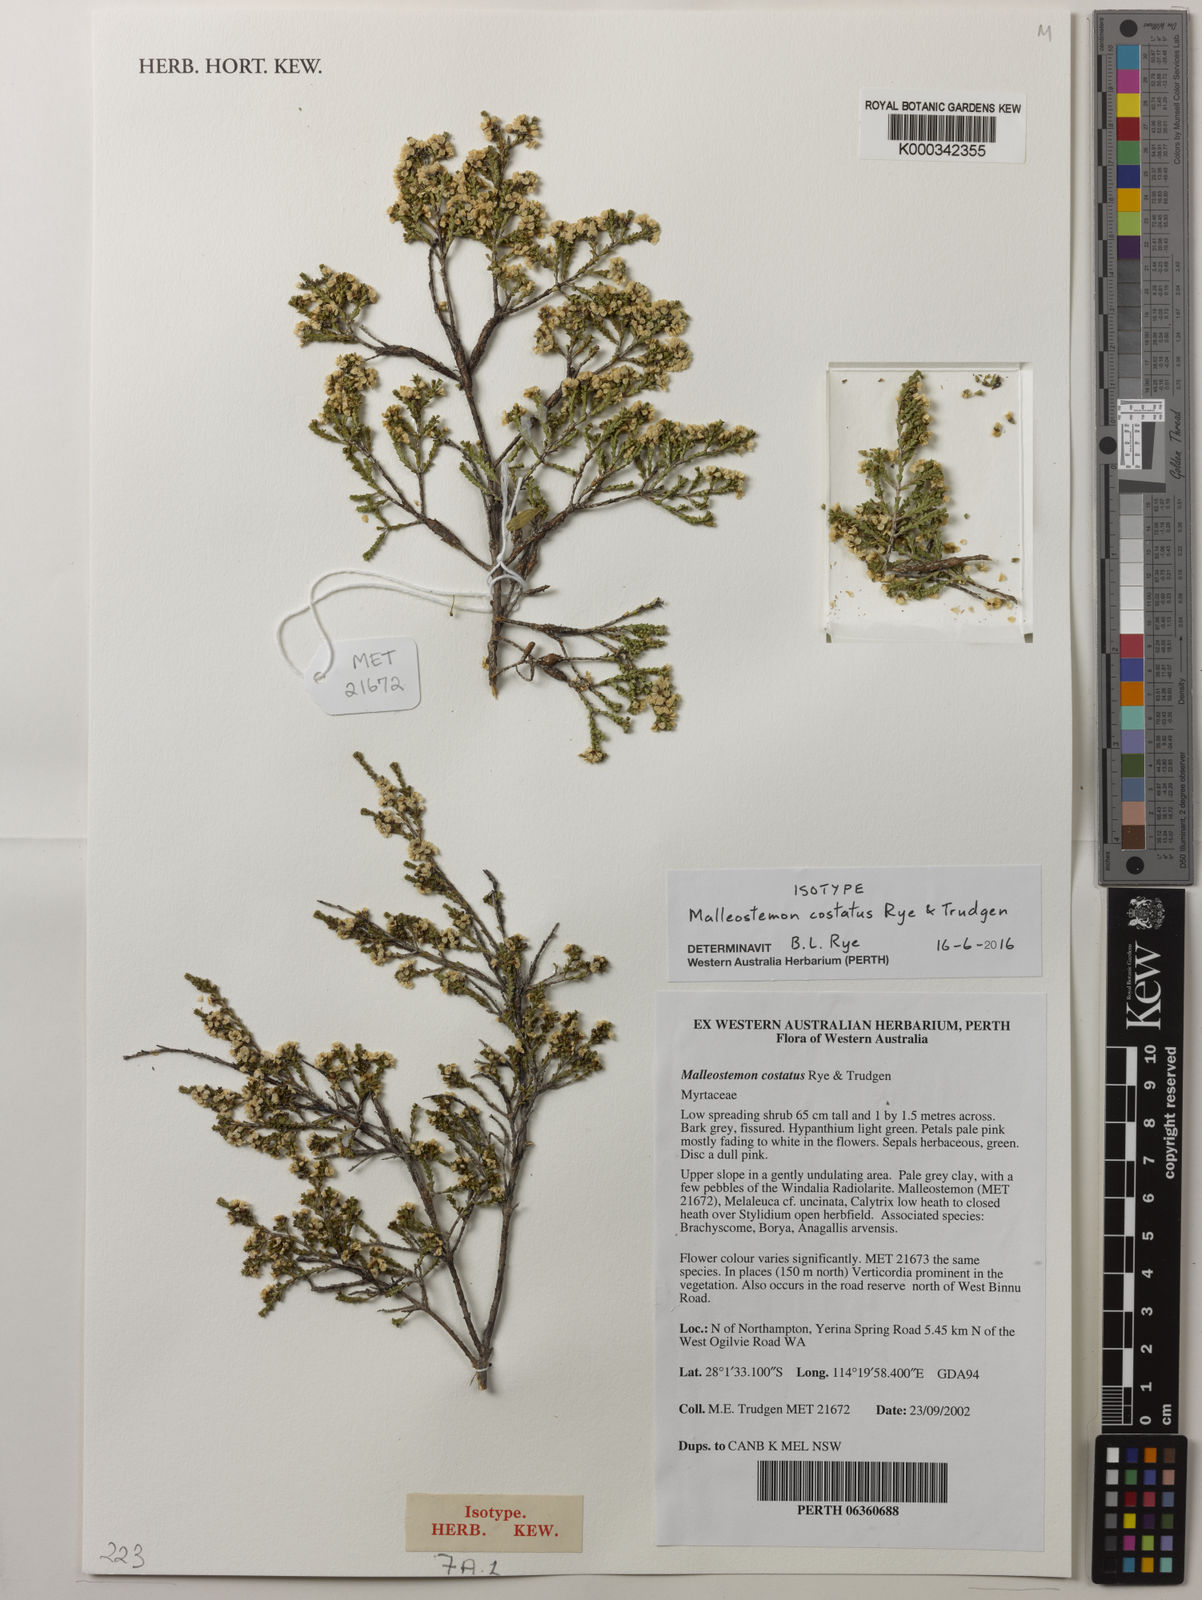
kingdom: Plantae
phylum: Tracheophyta
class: Magnoliopsida
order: Myrtales
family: Myrtaceae
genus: Malleostemon
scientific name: Malleostemon costatus
